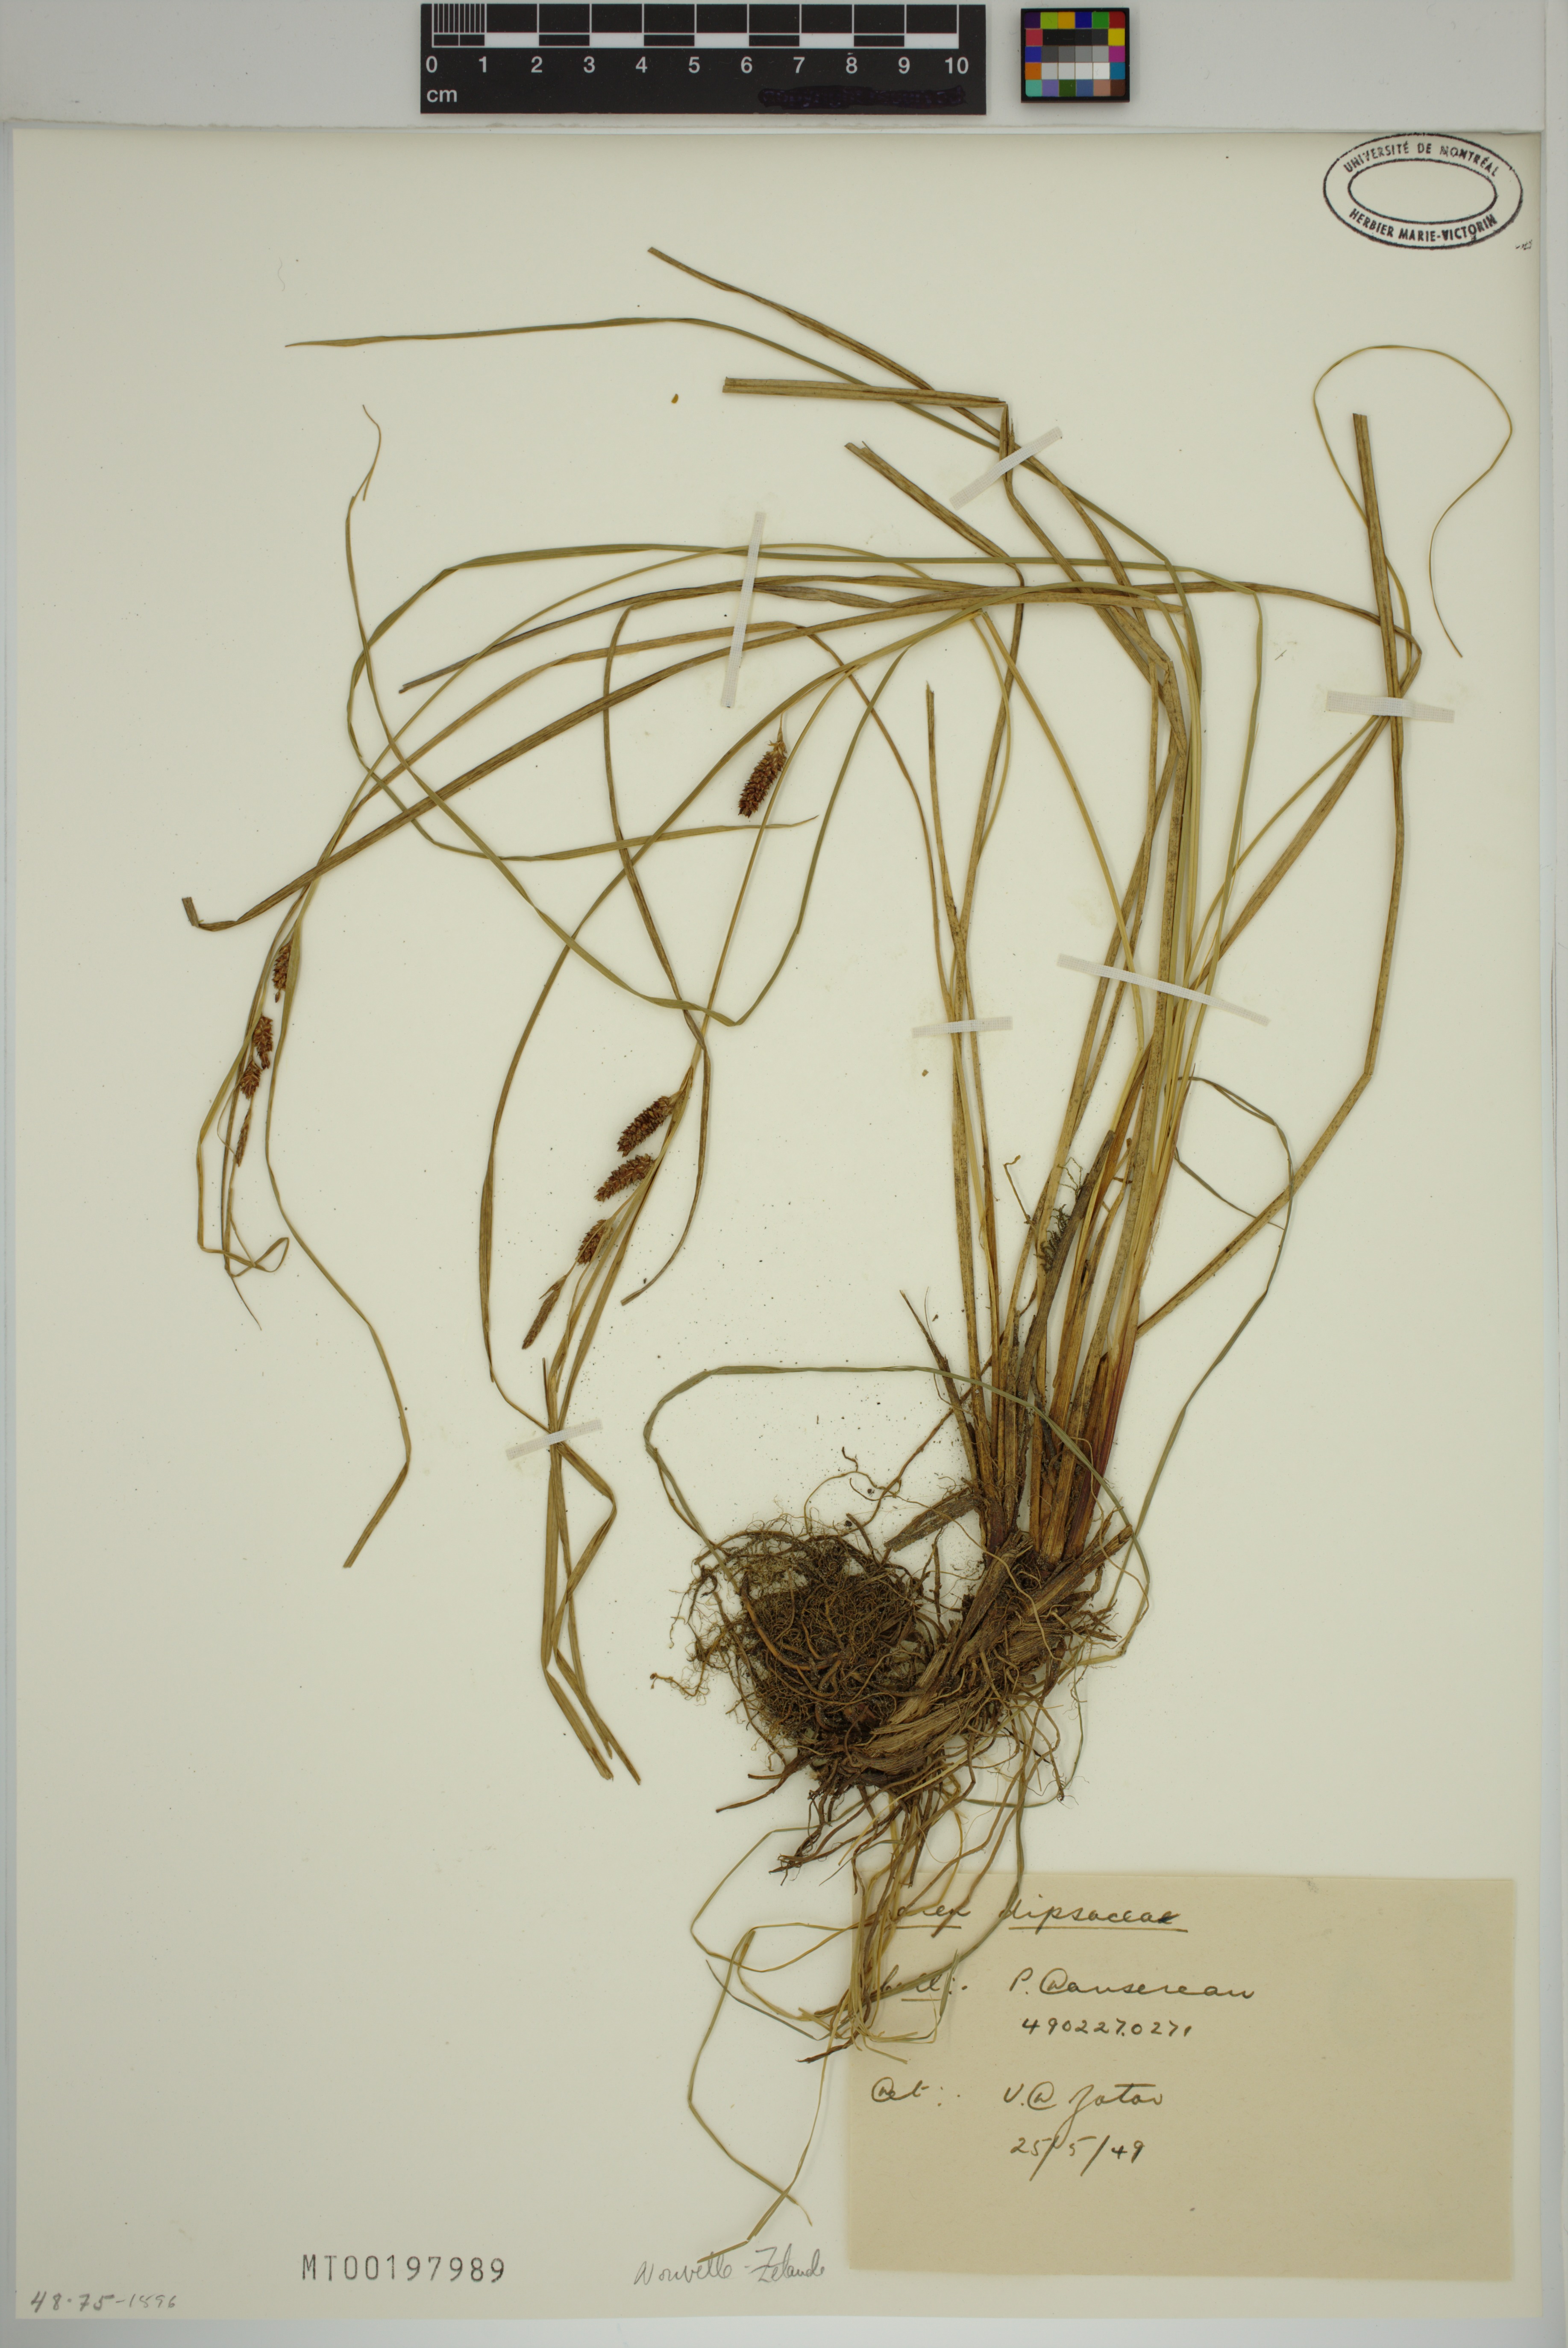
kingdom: Plantae
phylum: Tracheophyta
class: Liliopsida
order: Poales
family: Cyperaceae
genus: Carex
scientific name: Carex dipsacea
